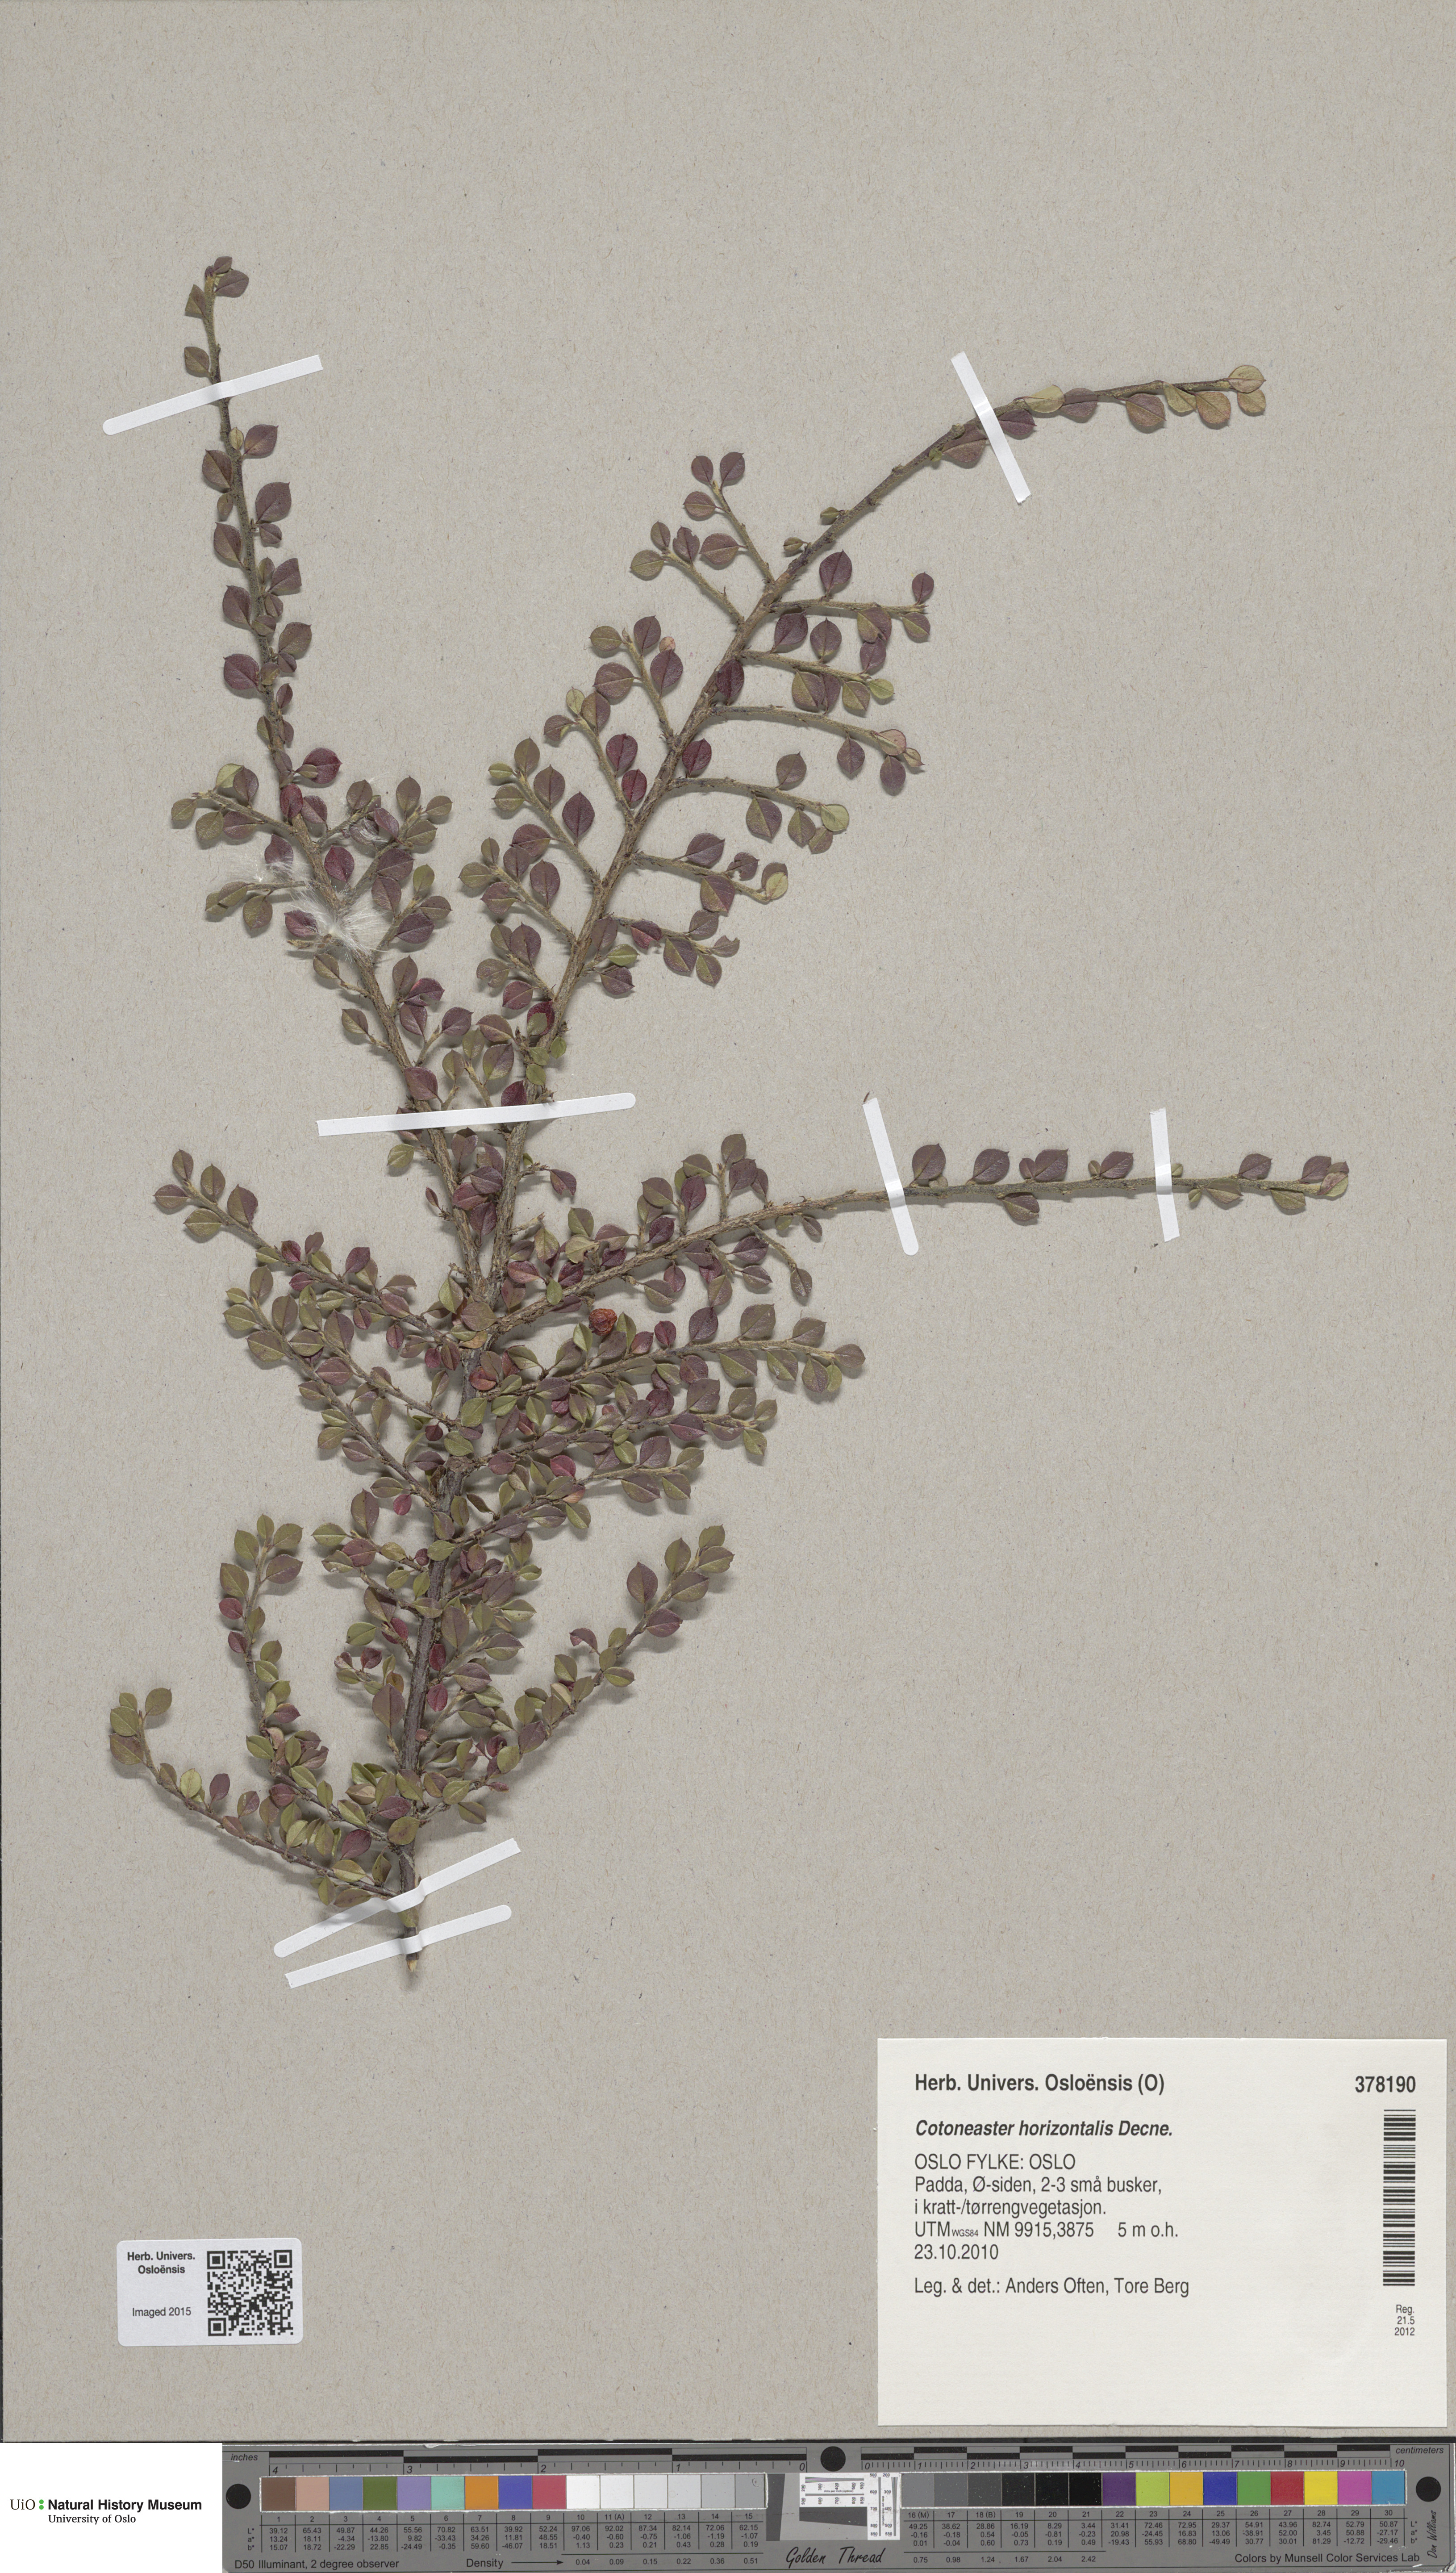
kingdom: Plantae
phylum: Tracheophyta
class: Magnoliopsida
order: Rosales
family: Rosaceae
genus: Cotoneaster
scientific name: Cotoneaster horizontalis
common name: Wall cotoneaster
